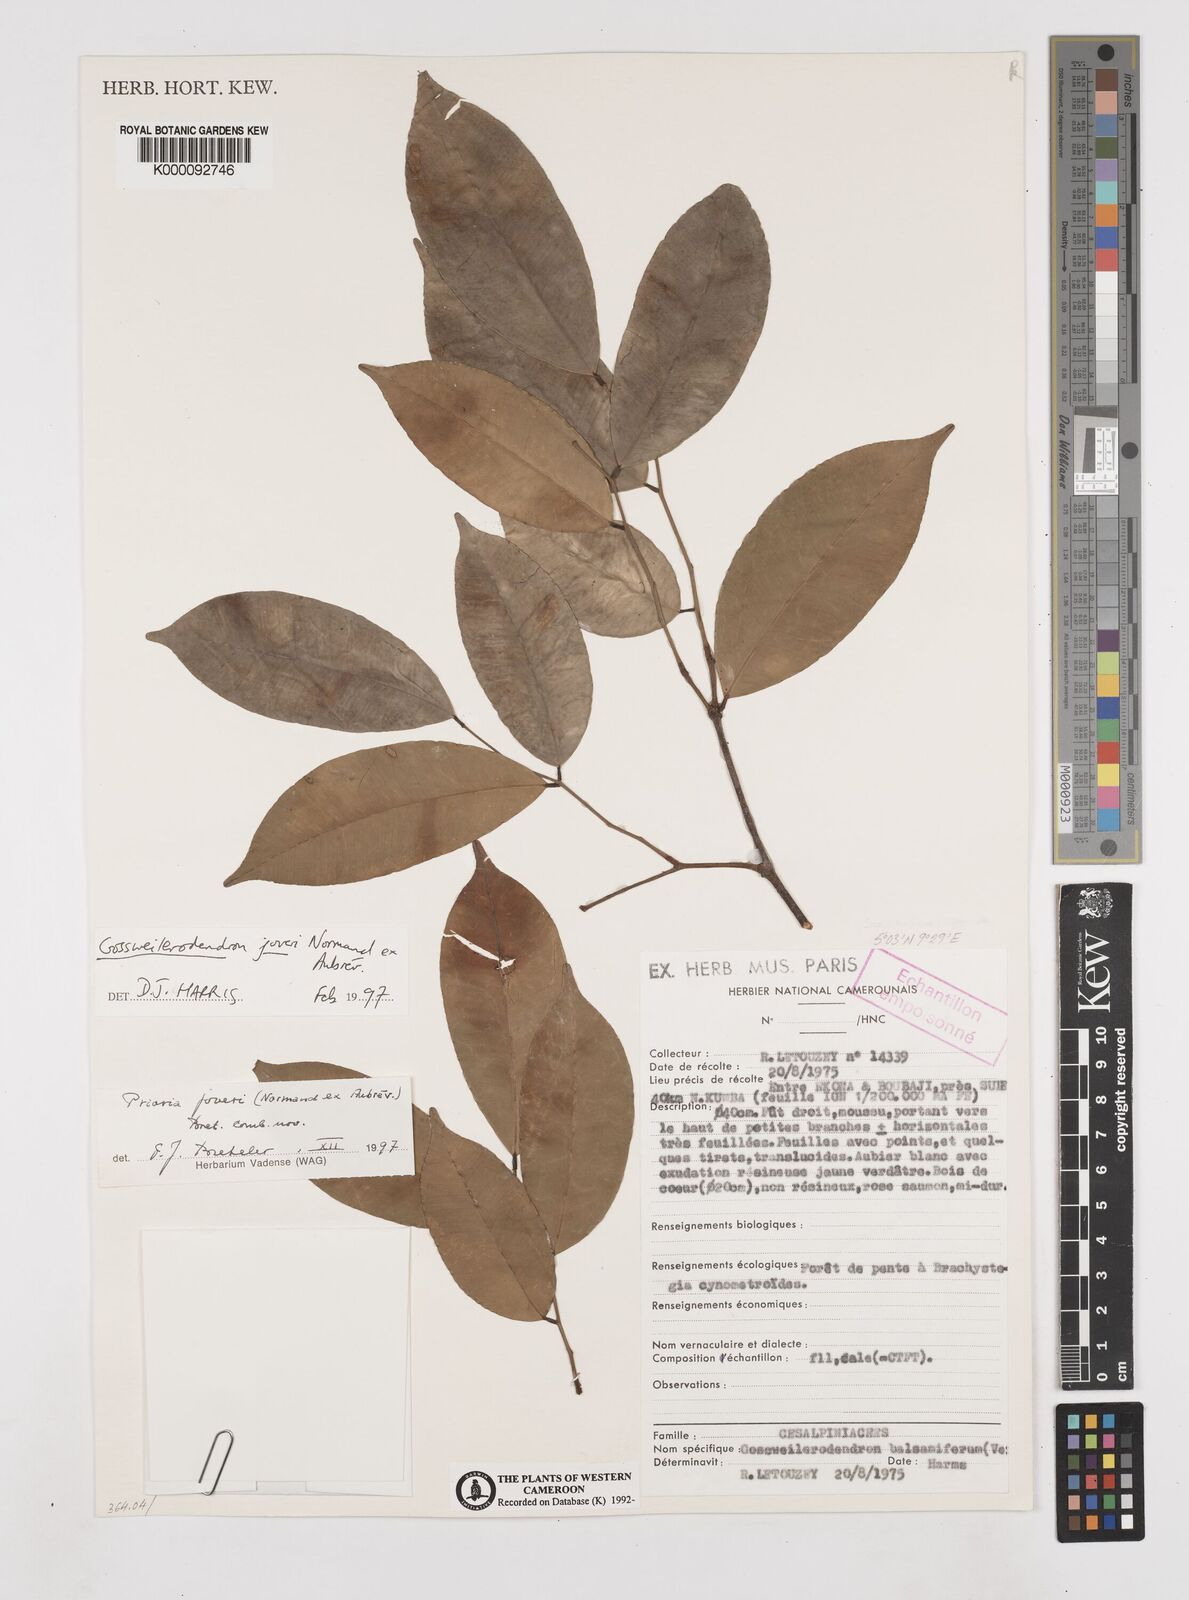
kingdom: Plantae
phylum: Tracheophyta
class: Magnoliopsida
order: Fabales
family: Fabaceae
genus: Prioria
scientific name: Prioria joveri
